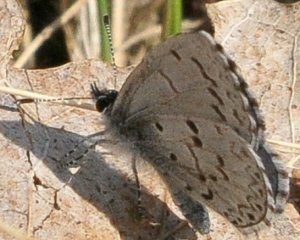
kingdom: Animalia
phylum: Arthropoda
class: Insecta
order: Lepidoptera
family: Lycaenidae
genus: Celastrina
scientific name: Celastrina lucia
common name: Northern Spring Azure
